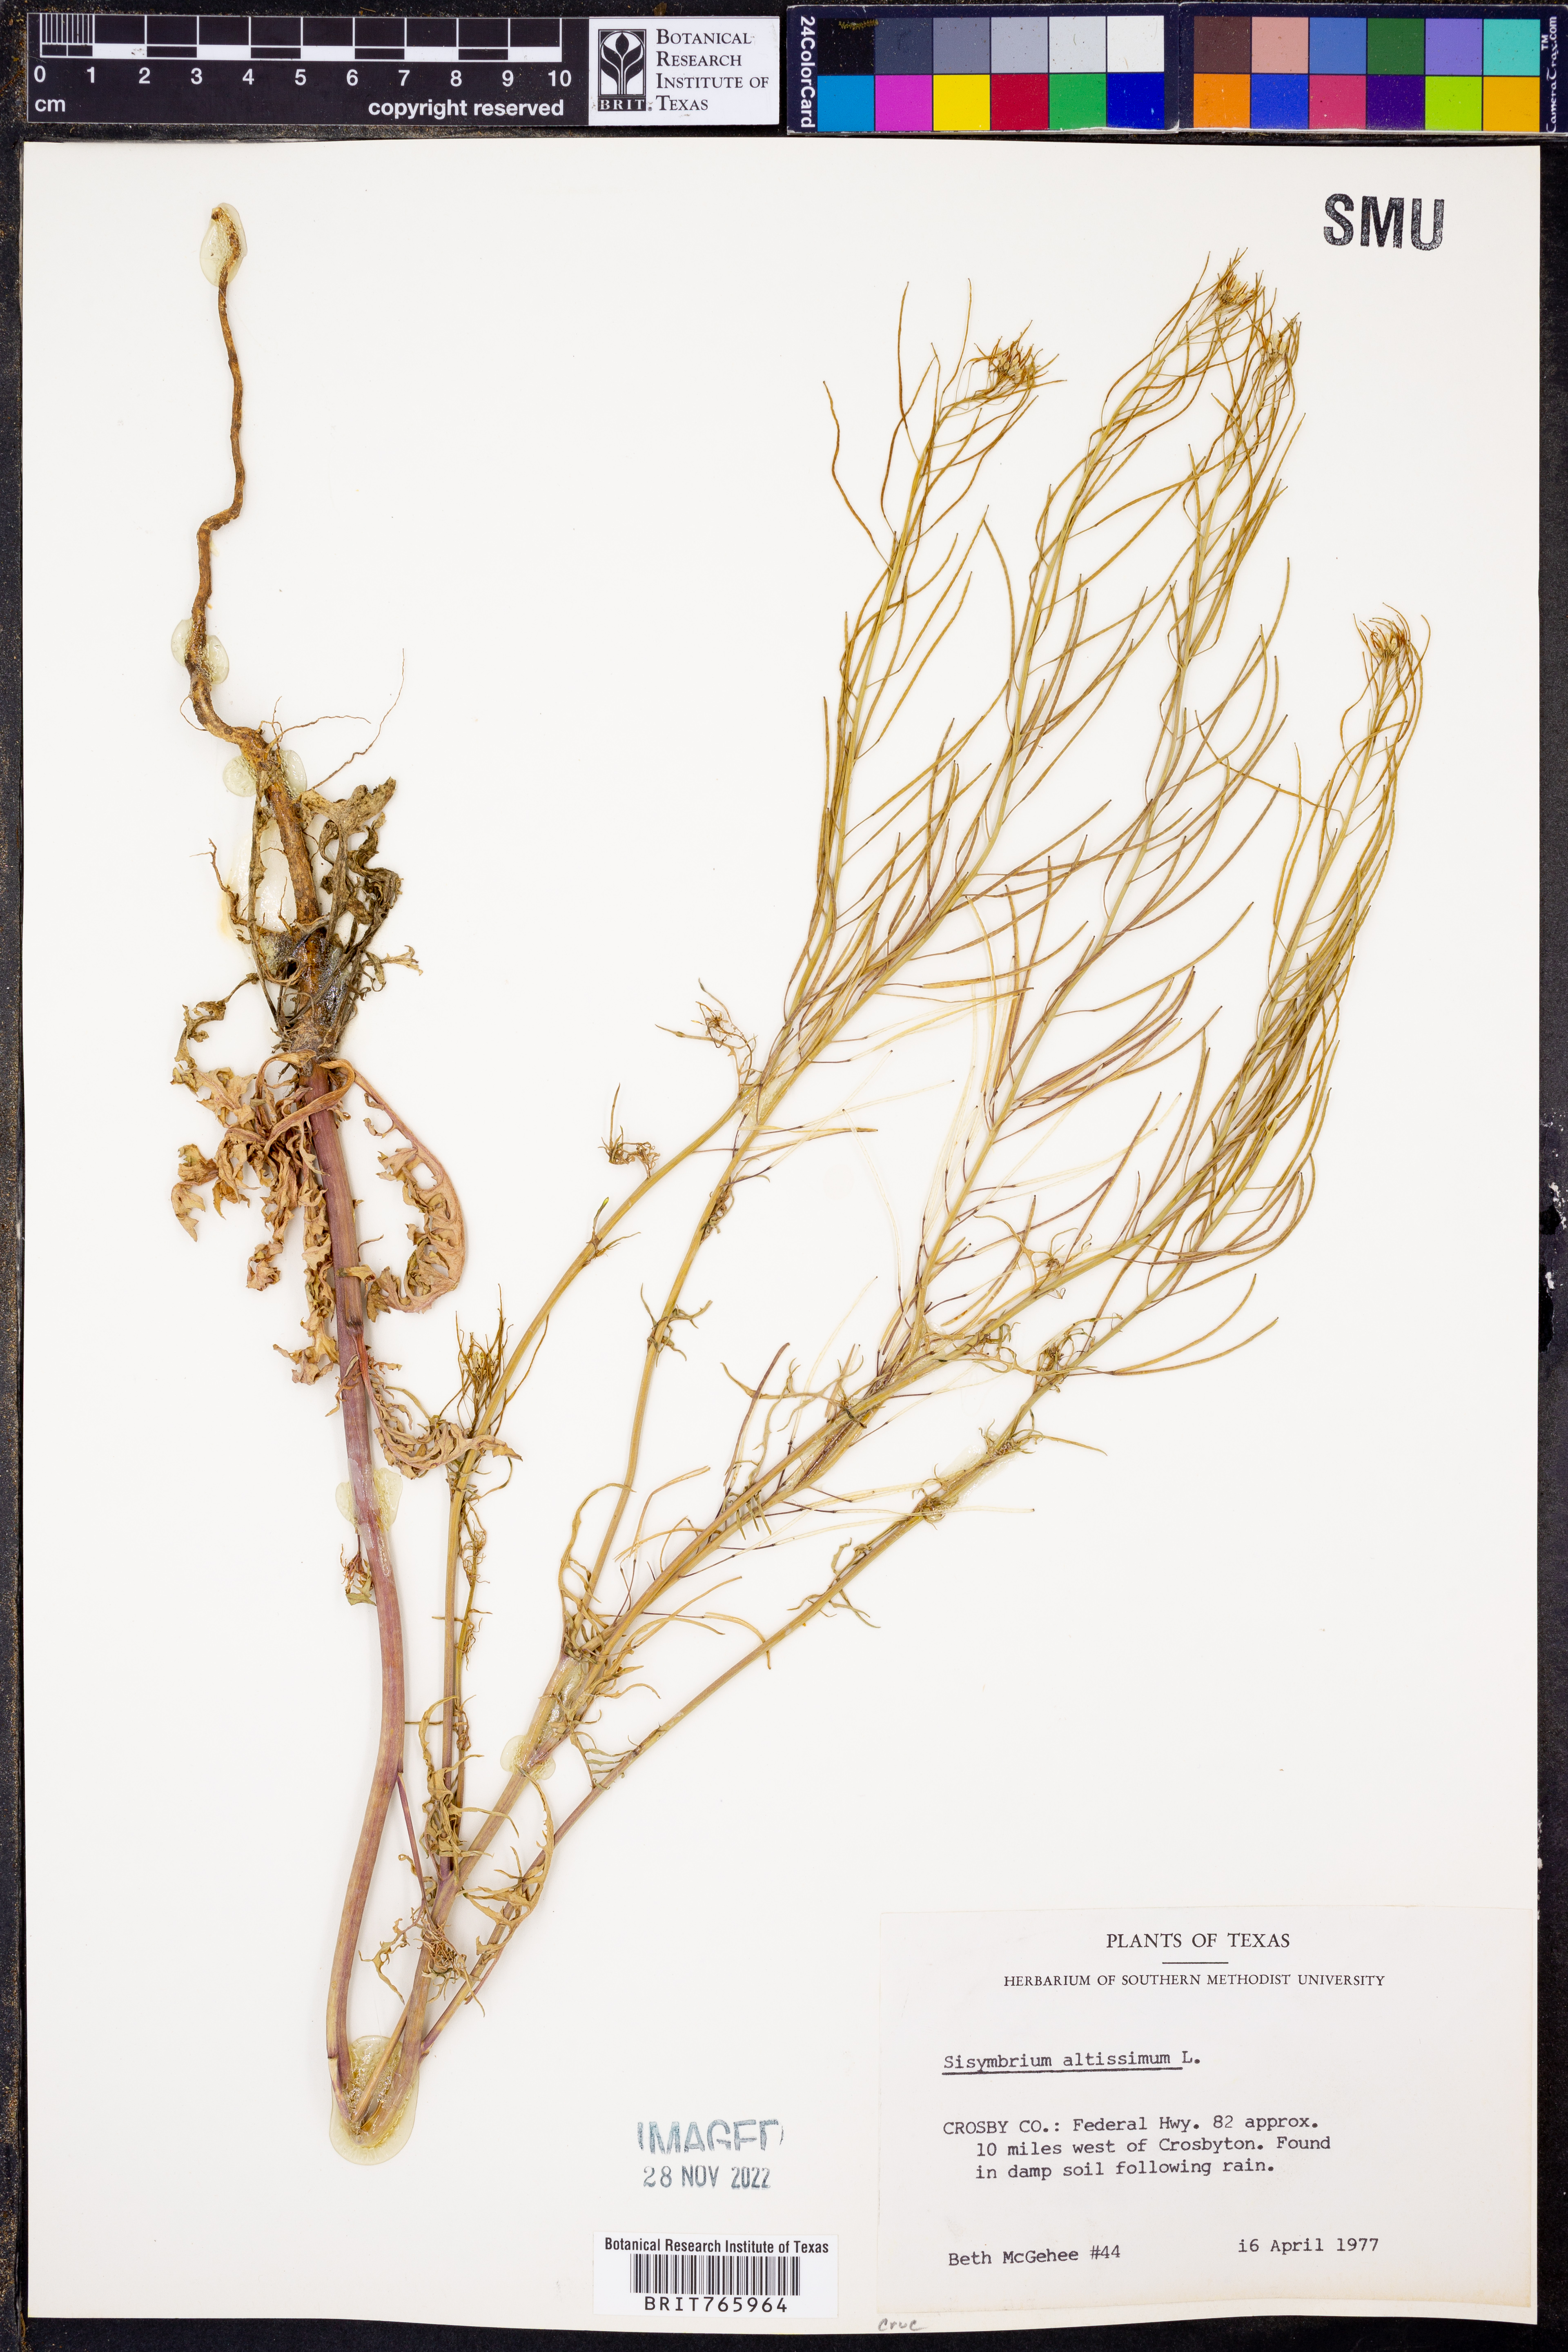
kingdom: Plantae
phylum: Tracheophyta
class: Magnoliopsida
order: Brassicales
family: Brassicaceae
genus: Sisymbrium
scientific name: Sisymbrium altissimum
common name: Tall rocket
